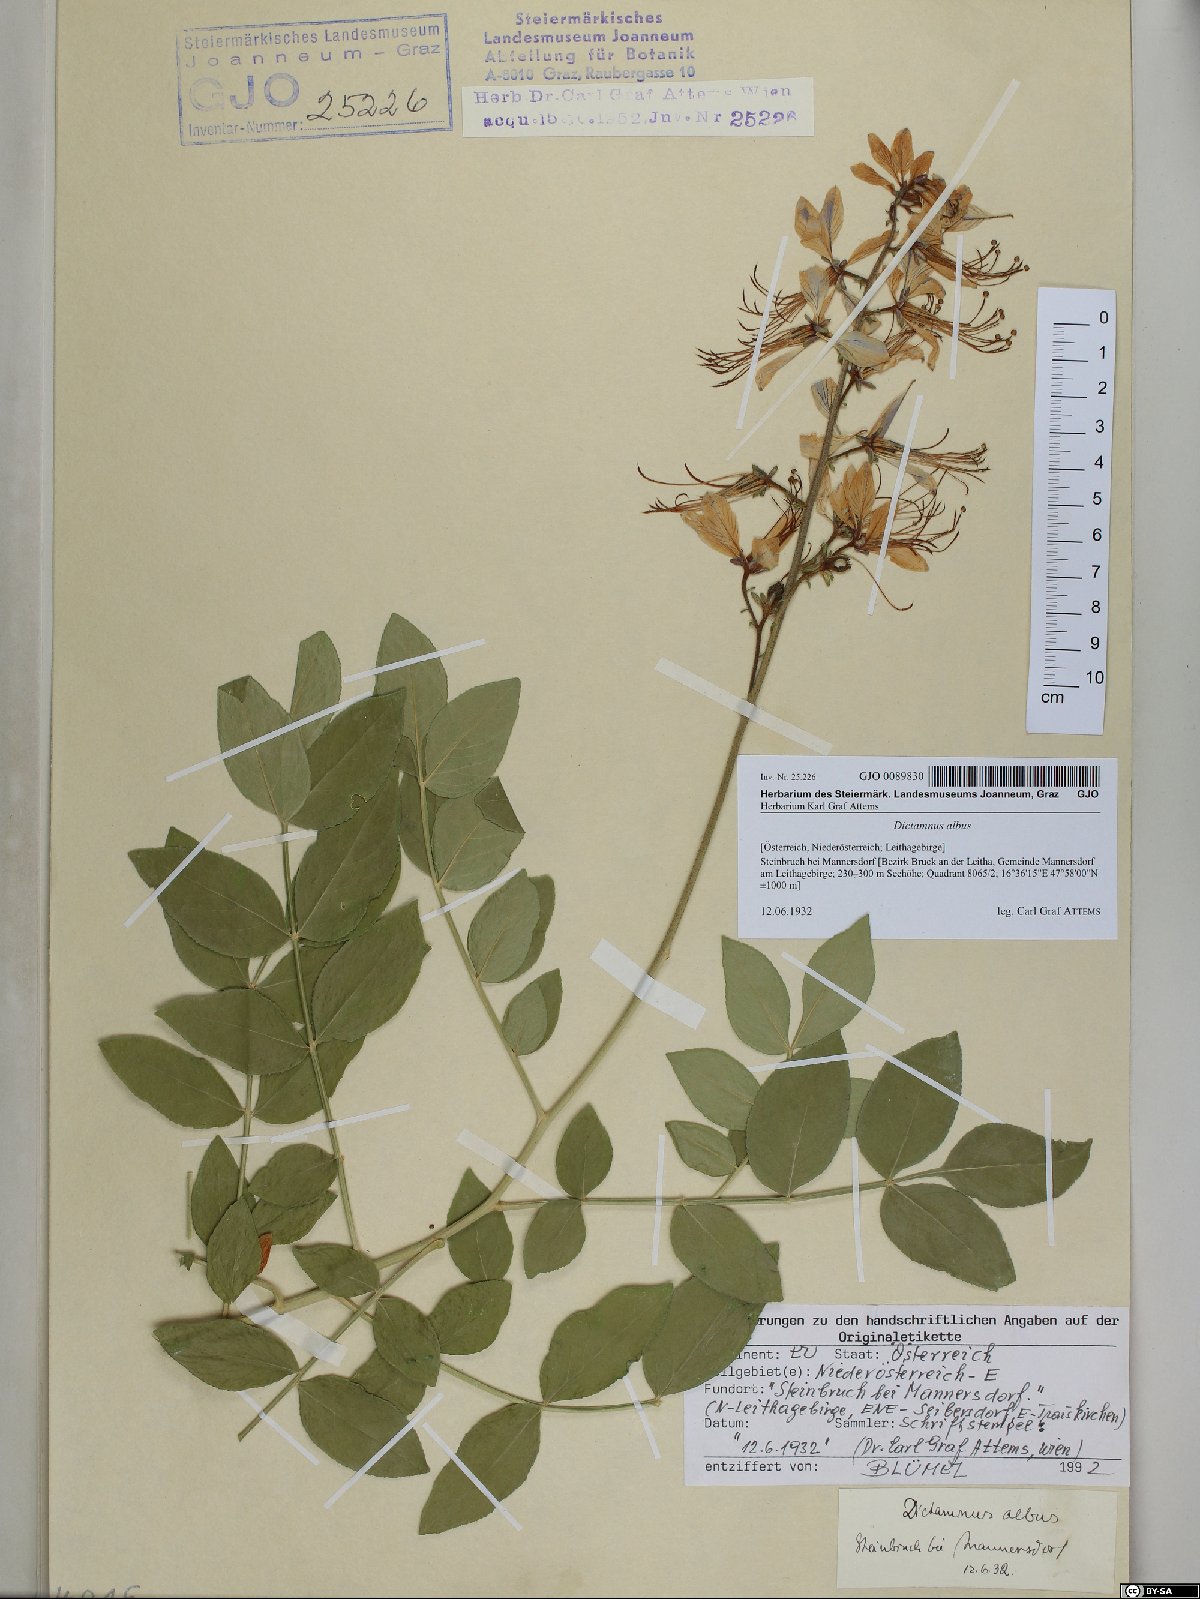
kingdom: Plantae
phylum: Tracheophyta
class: Magnoliopsida
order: Sapindales
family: Rutaceae
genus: Dictamnus
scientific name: Dictamnus albus
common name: Gasplant
